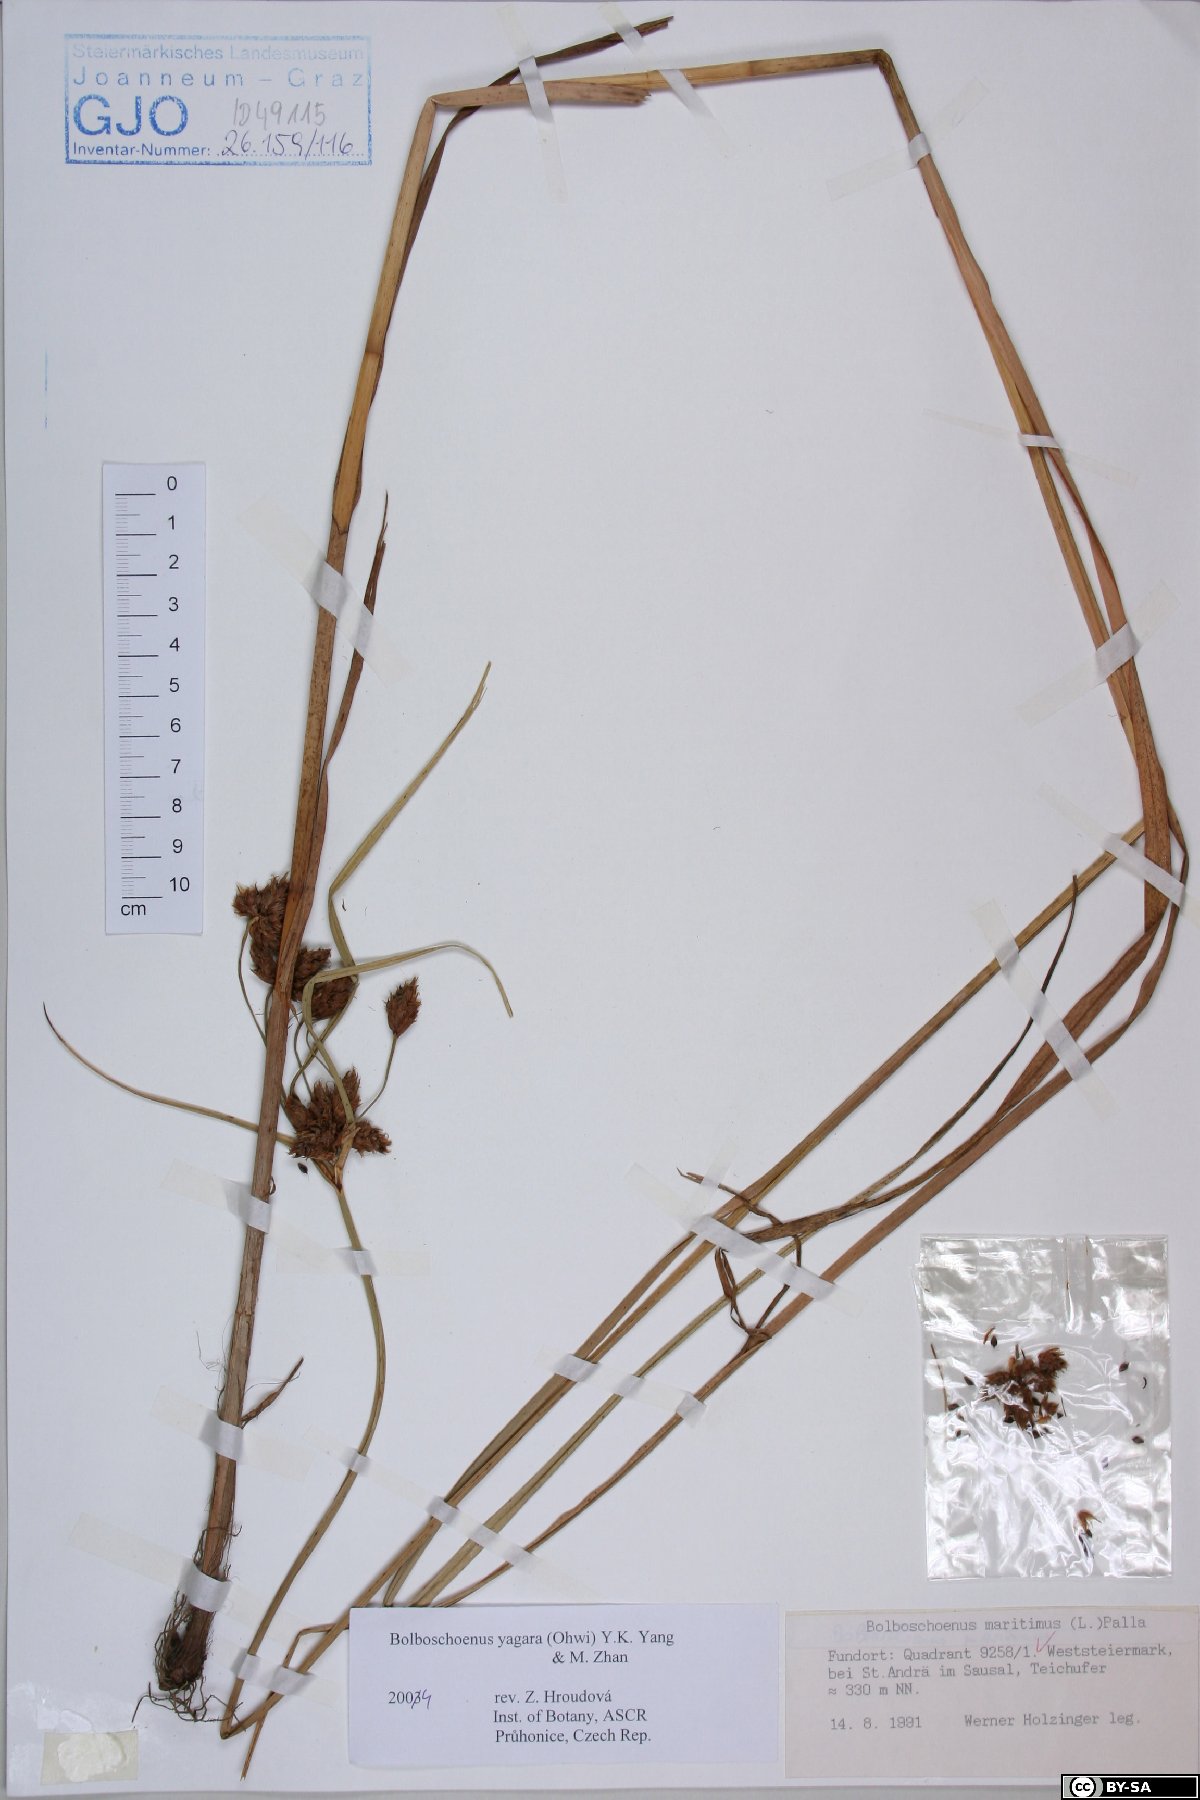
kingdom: Plantae
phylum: Tracheophyta
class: Liliopsida
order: Poales
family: Cyperaceae
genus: Bolboschoenus
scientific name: Bolboschoenus yagara
